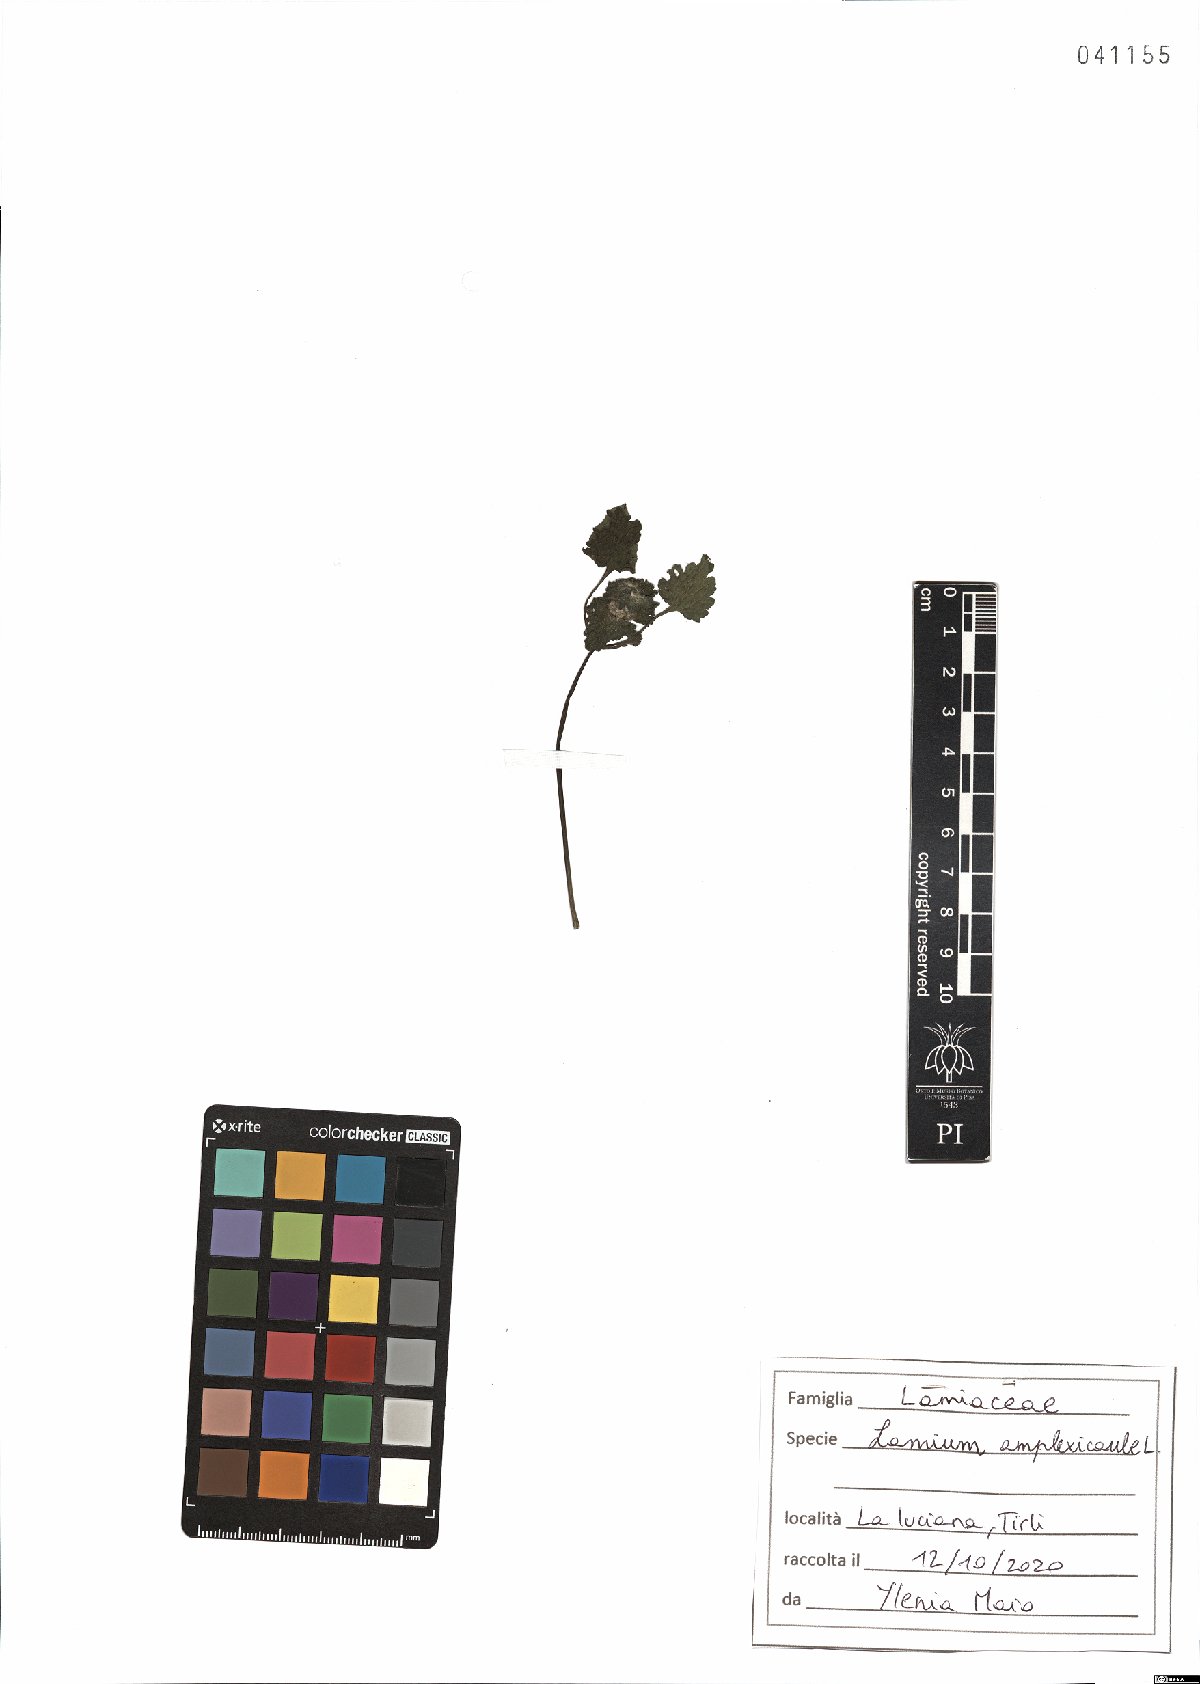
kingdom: Plantae
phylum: Tracheophyta
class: Magnoliopsida
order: Lamiales
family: Lamiaceae
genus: Lamium
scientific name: Lamium amplexicaule
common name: Henbit dead-nettle
